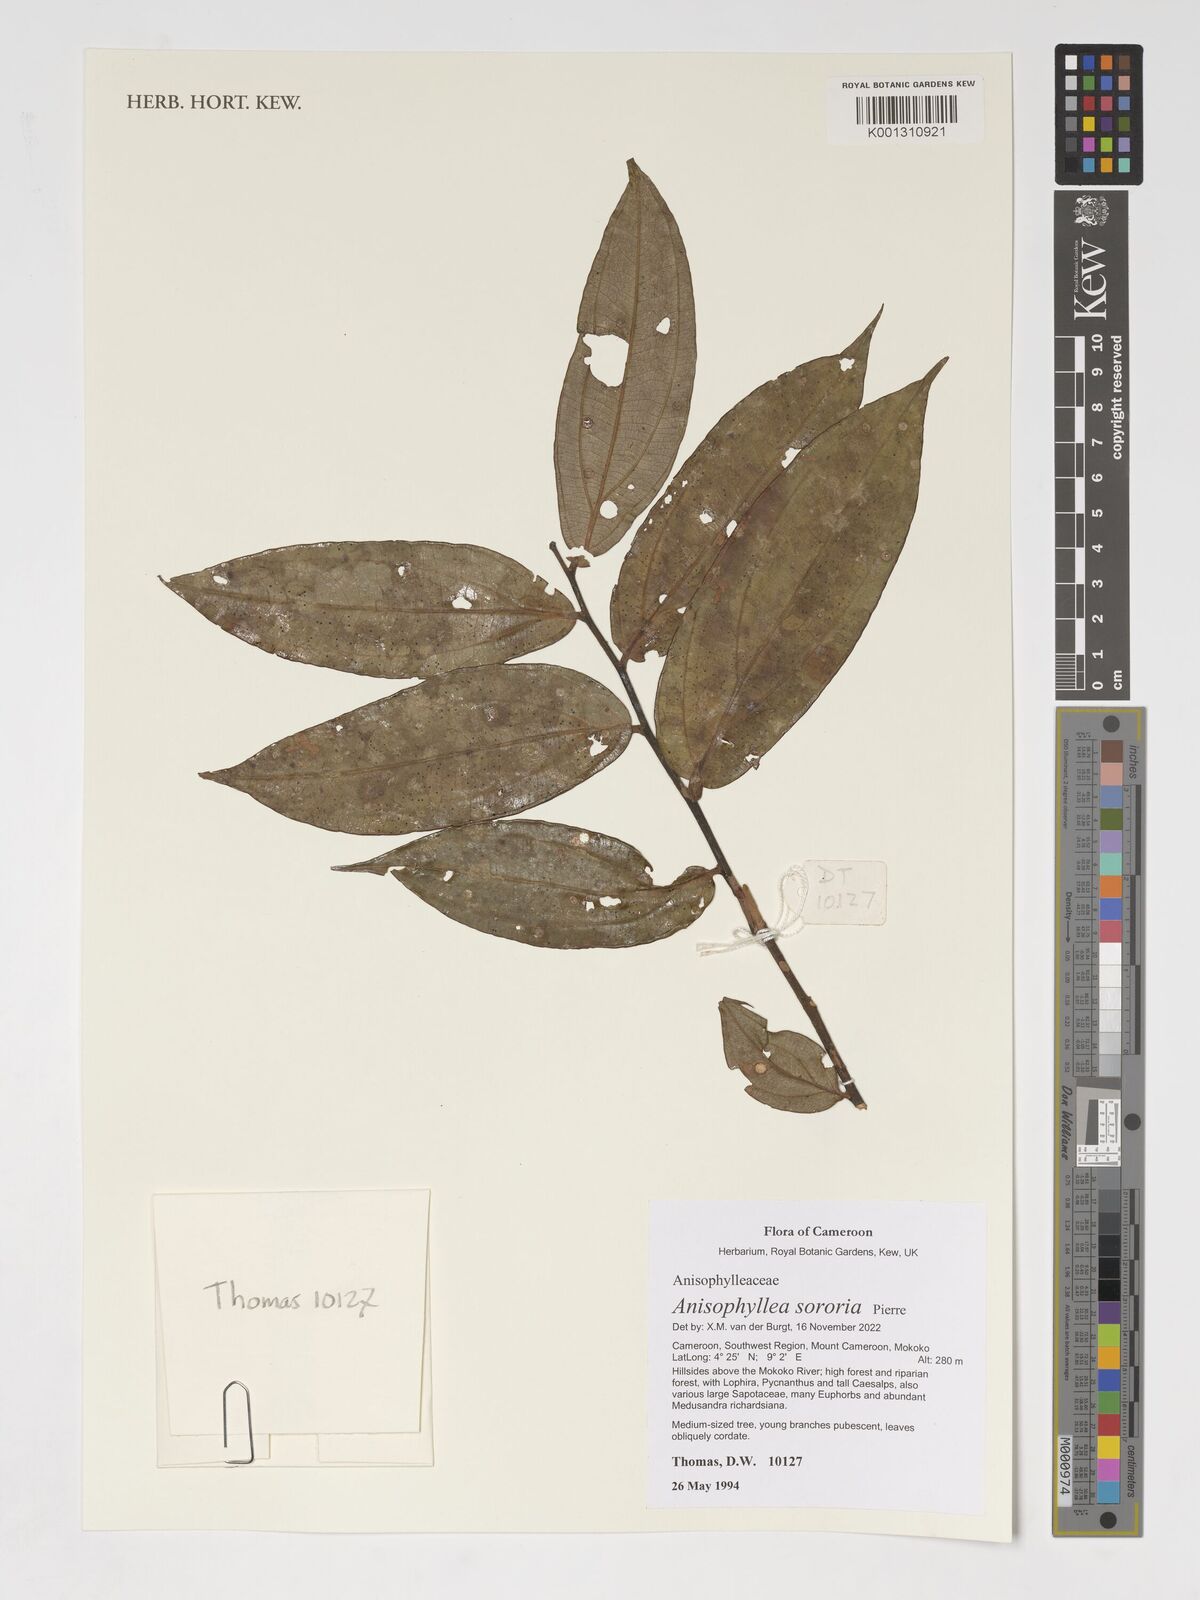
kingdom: Plantae
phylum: Tracheophyta
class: Magnoliopsida
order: Cucurbitales
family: Anisophylleaceae
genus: Anisophyllea
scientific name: Anisophyllea sororia
